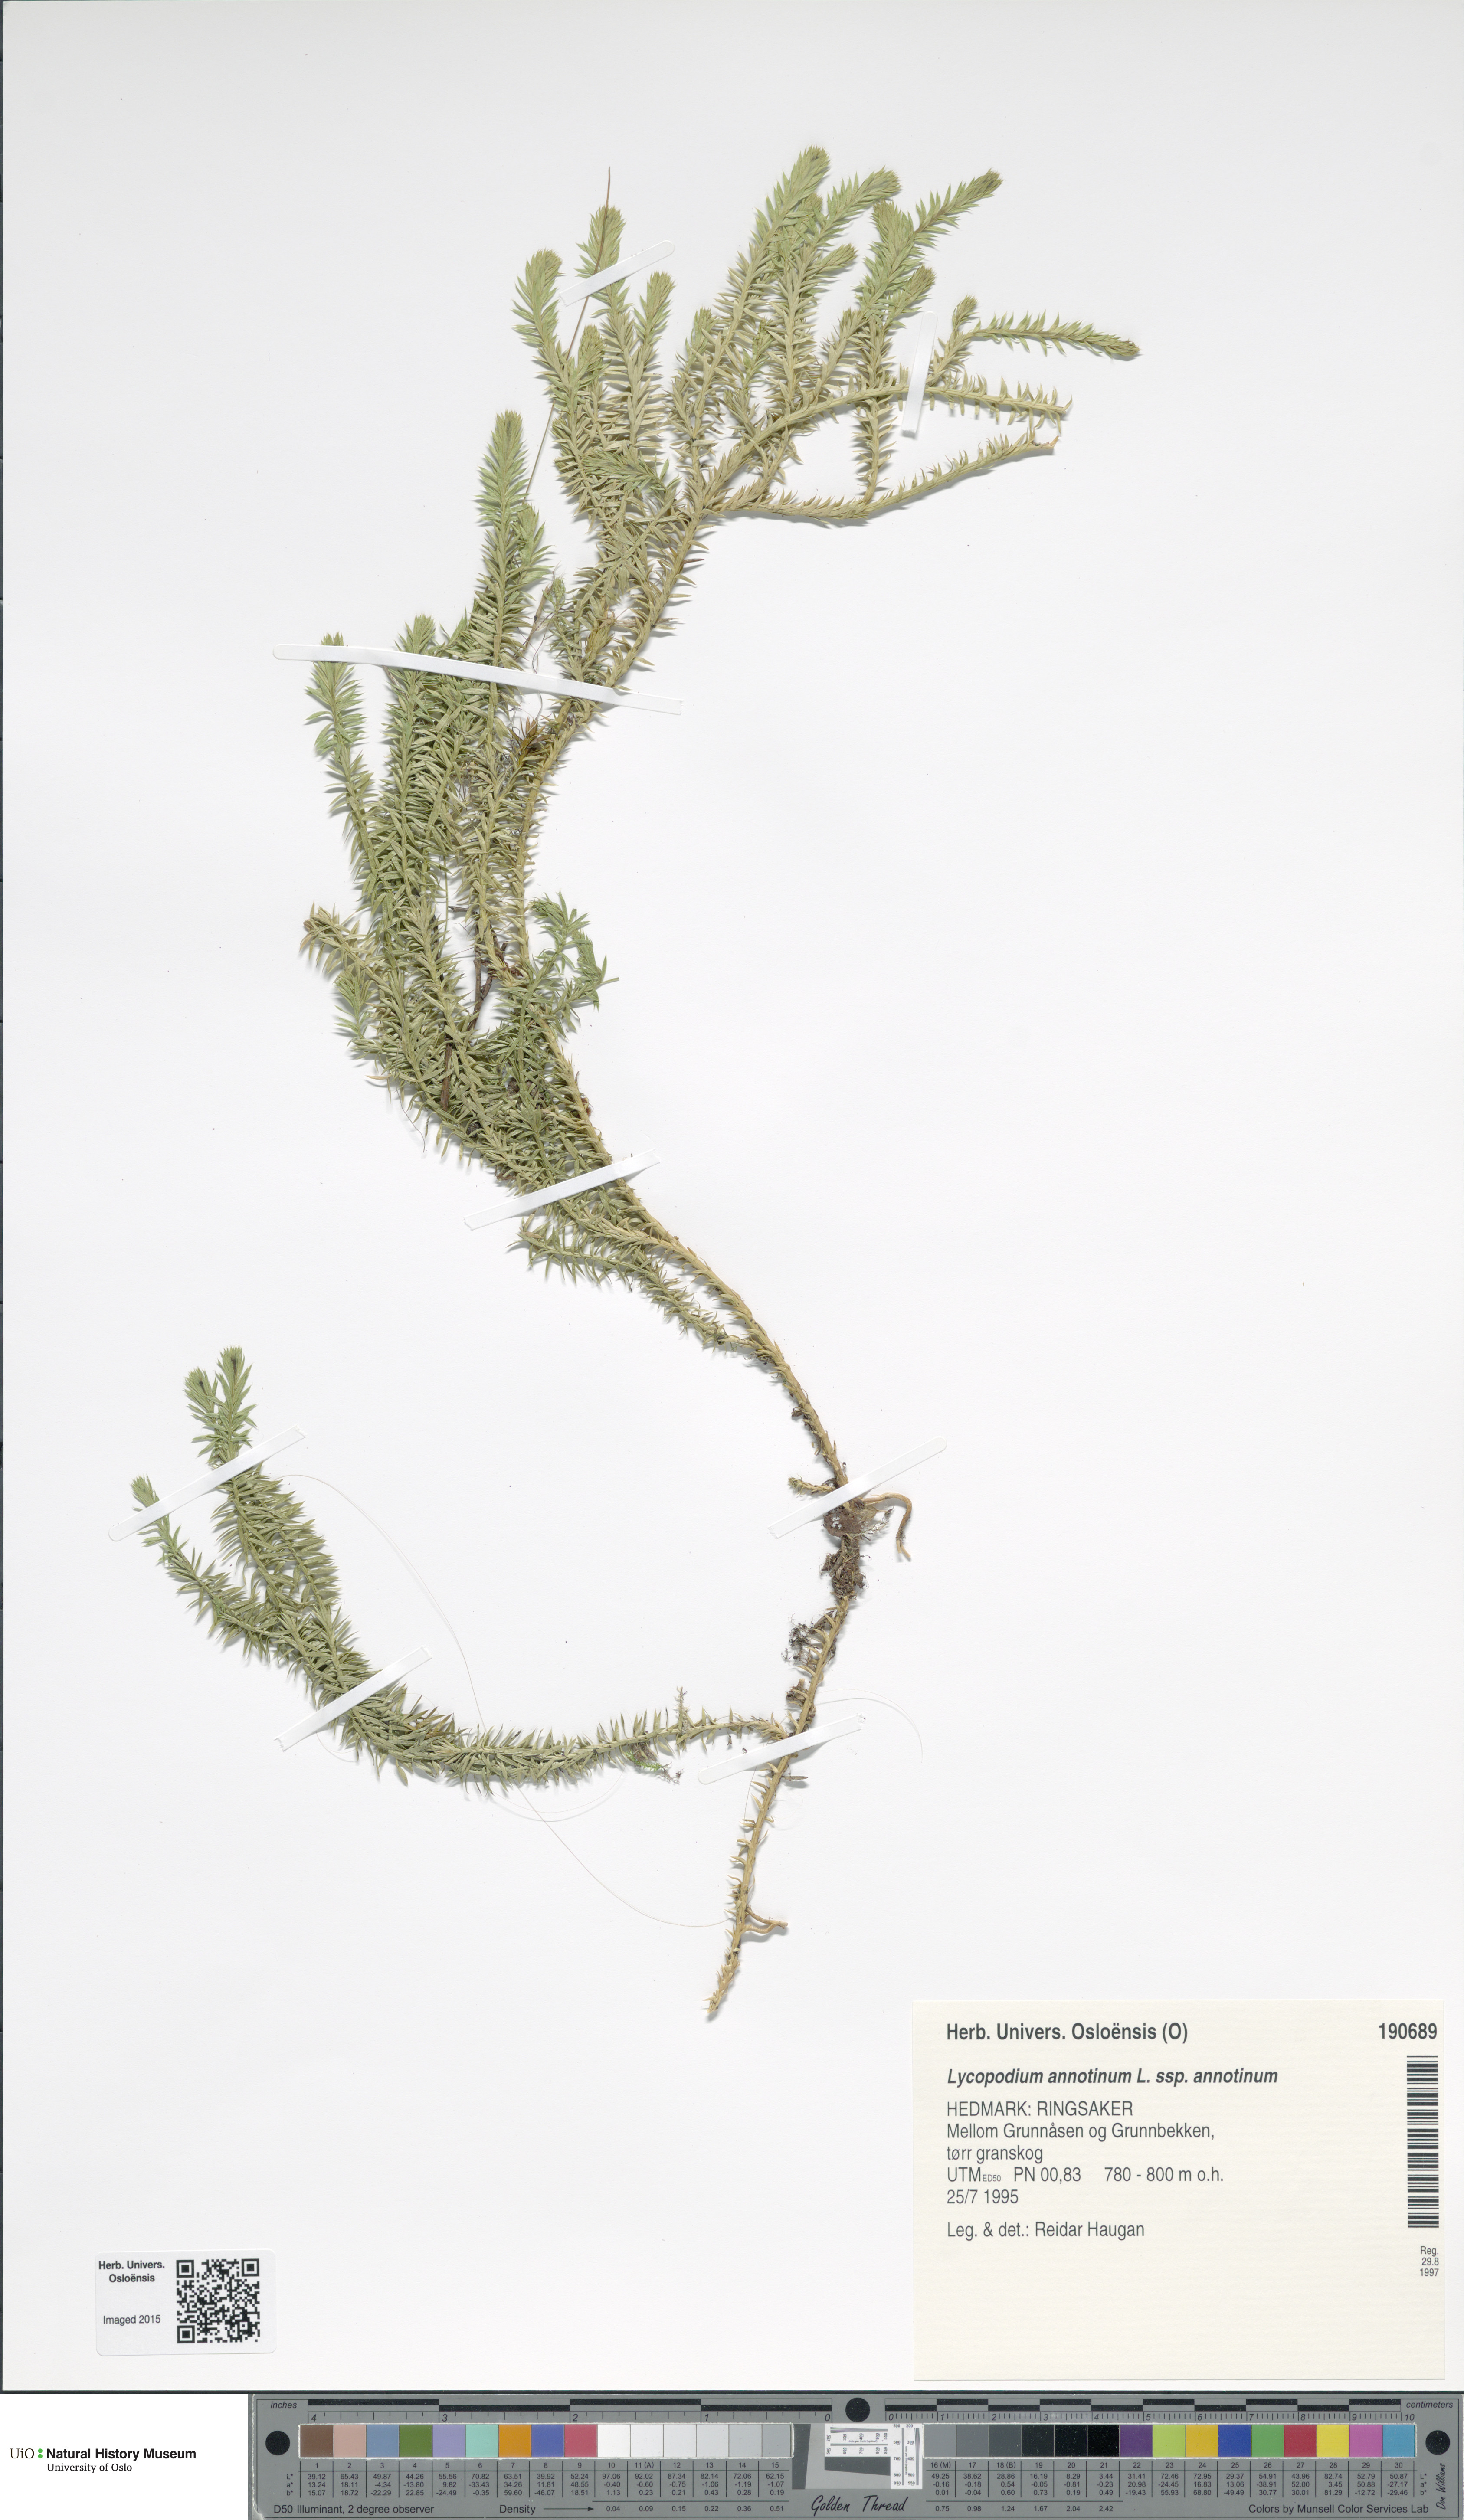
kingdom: Plantae
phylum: Tracheophyta
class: Lycopodiopsida
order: Lycopodiales
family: Lycopodiaceae
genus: Spinulum
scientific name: Spinulum annotinum
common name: Interrupted club-moss
